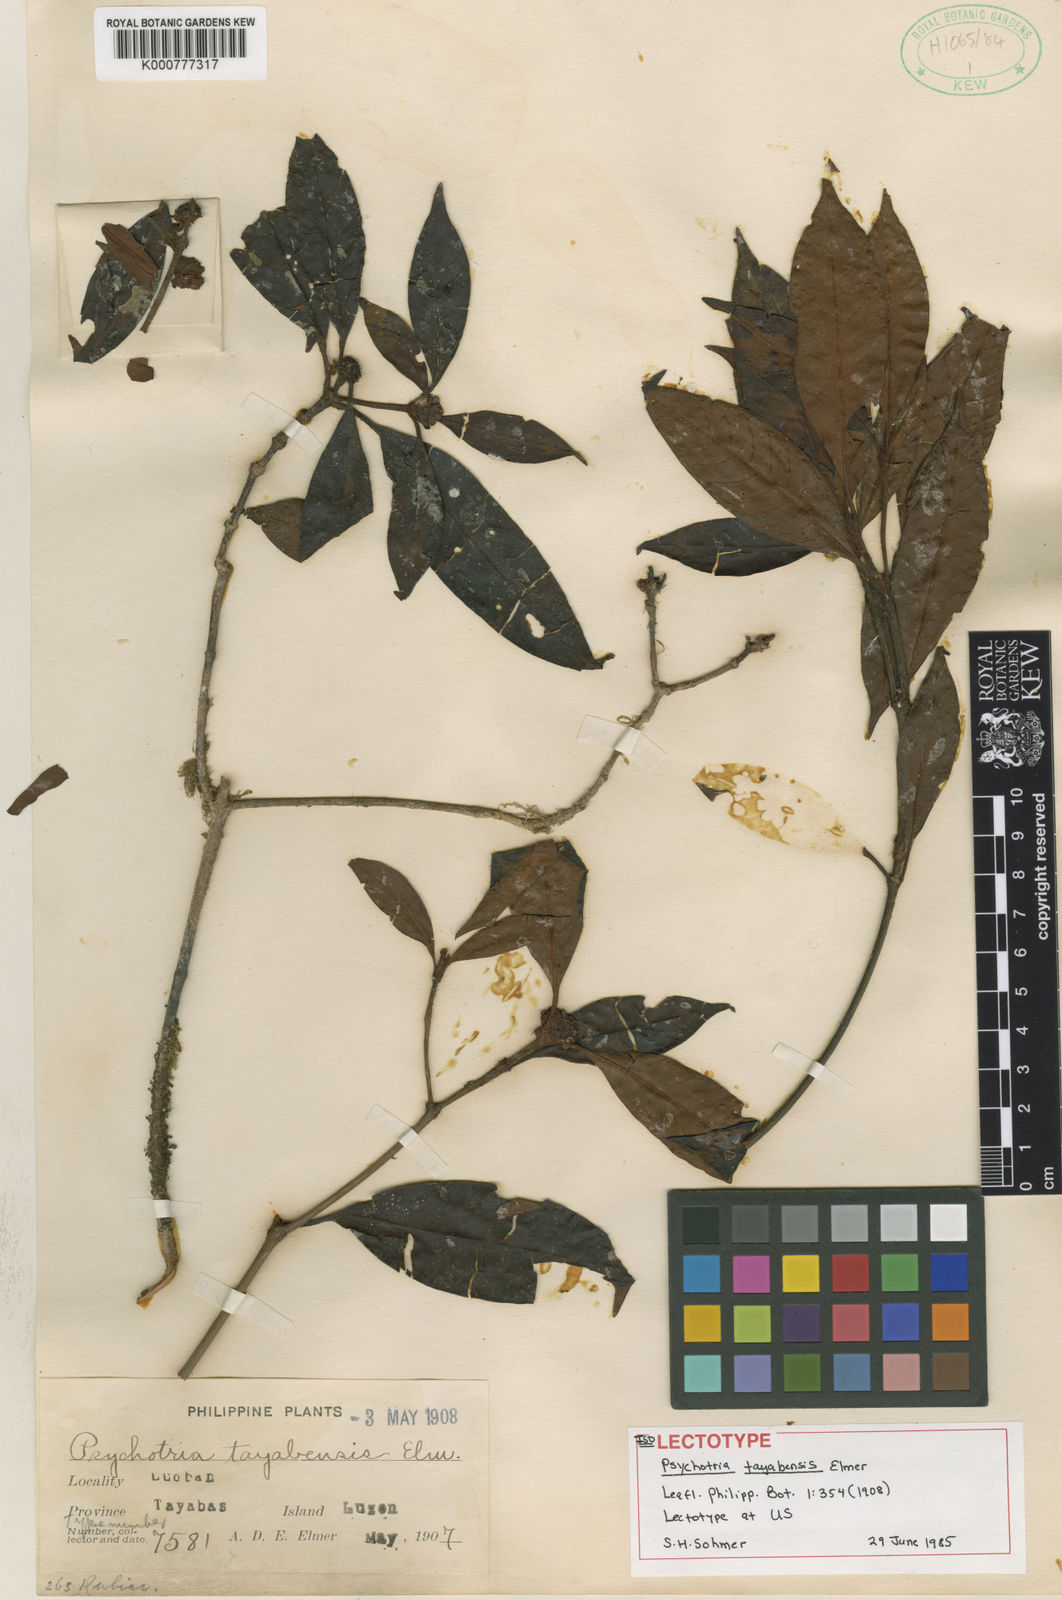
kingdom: Plantae
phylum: Tracheophyta
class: Magnoliopsida
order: Gentianales
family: Rubiaceae
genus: Psychotria
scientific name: Psychotria tayabensis
